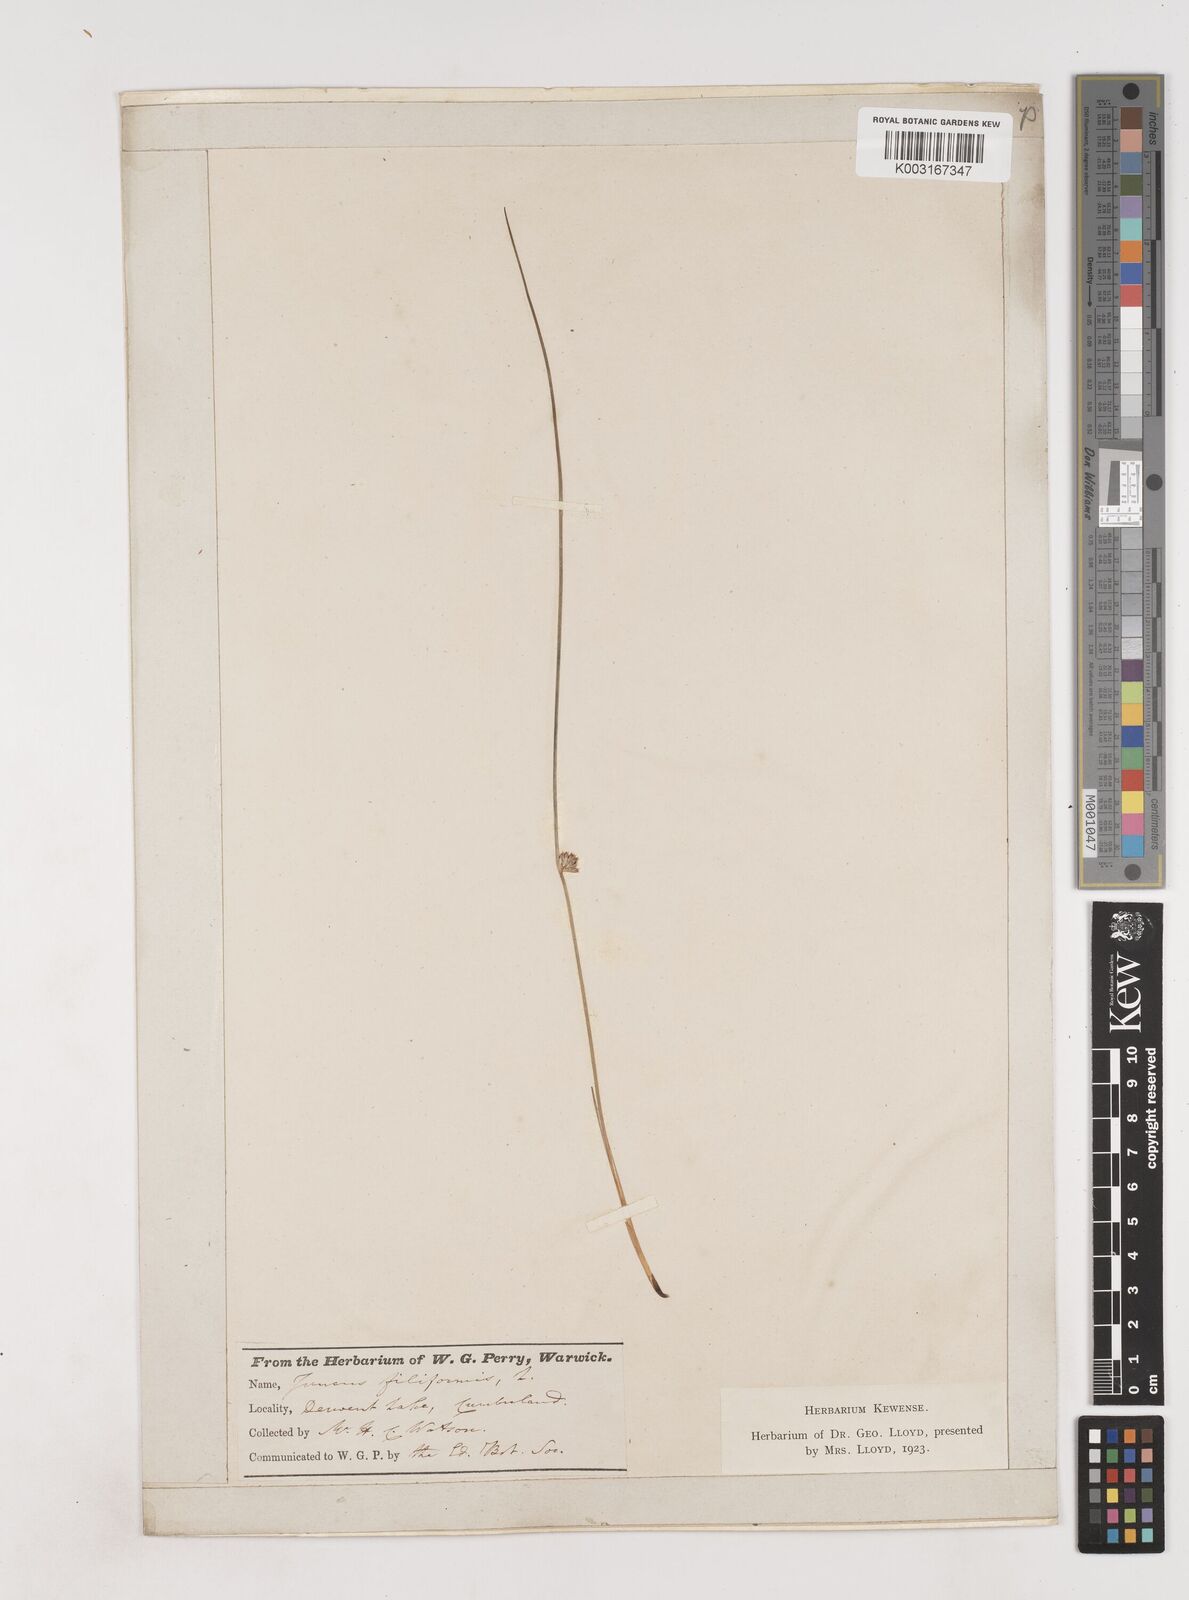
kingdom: Plantae
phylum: Tracheophyta
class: Liliopsida
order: Poales
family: Juncaceae
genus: Juncus
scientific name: Juncus filiformis
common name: Thread rush
